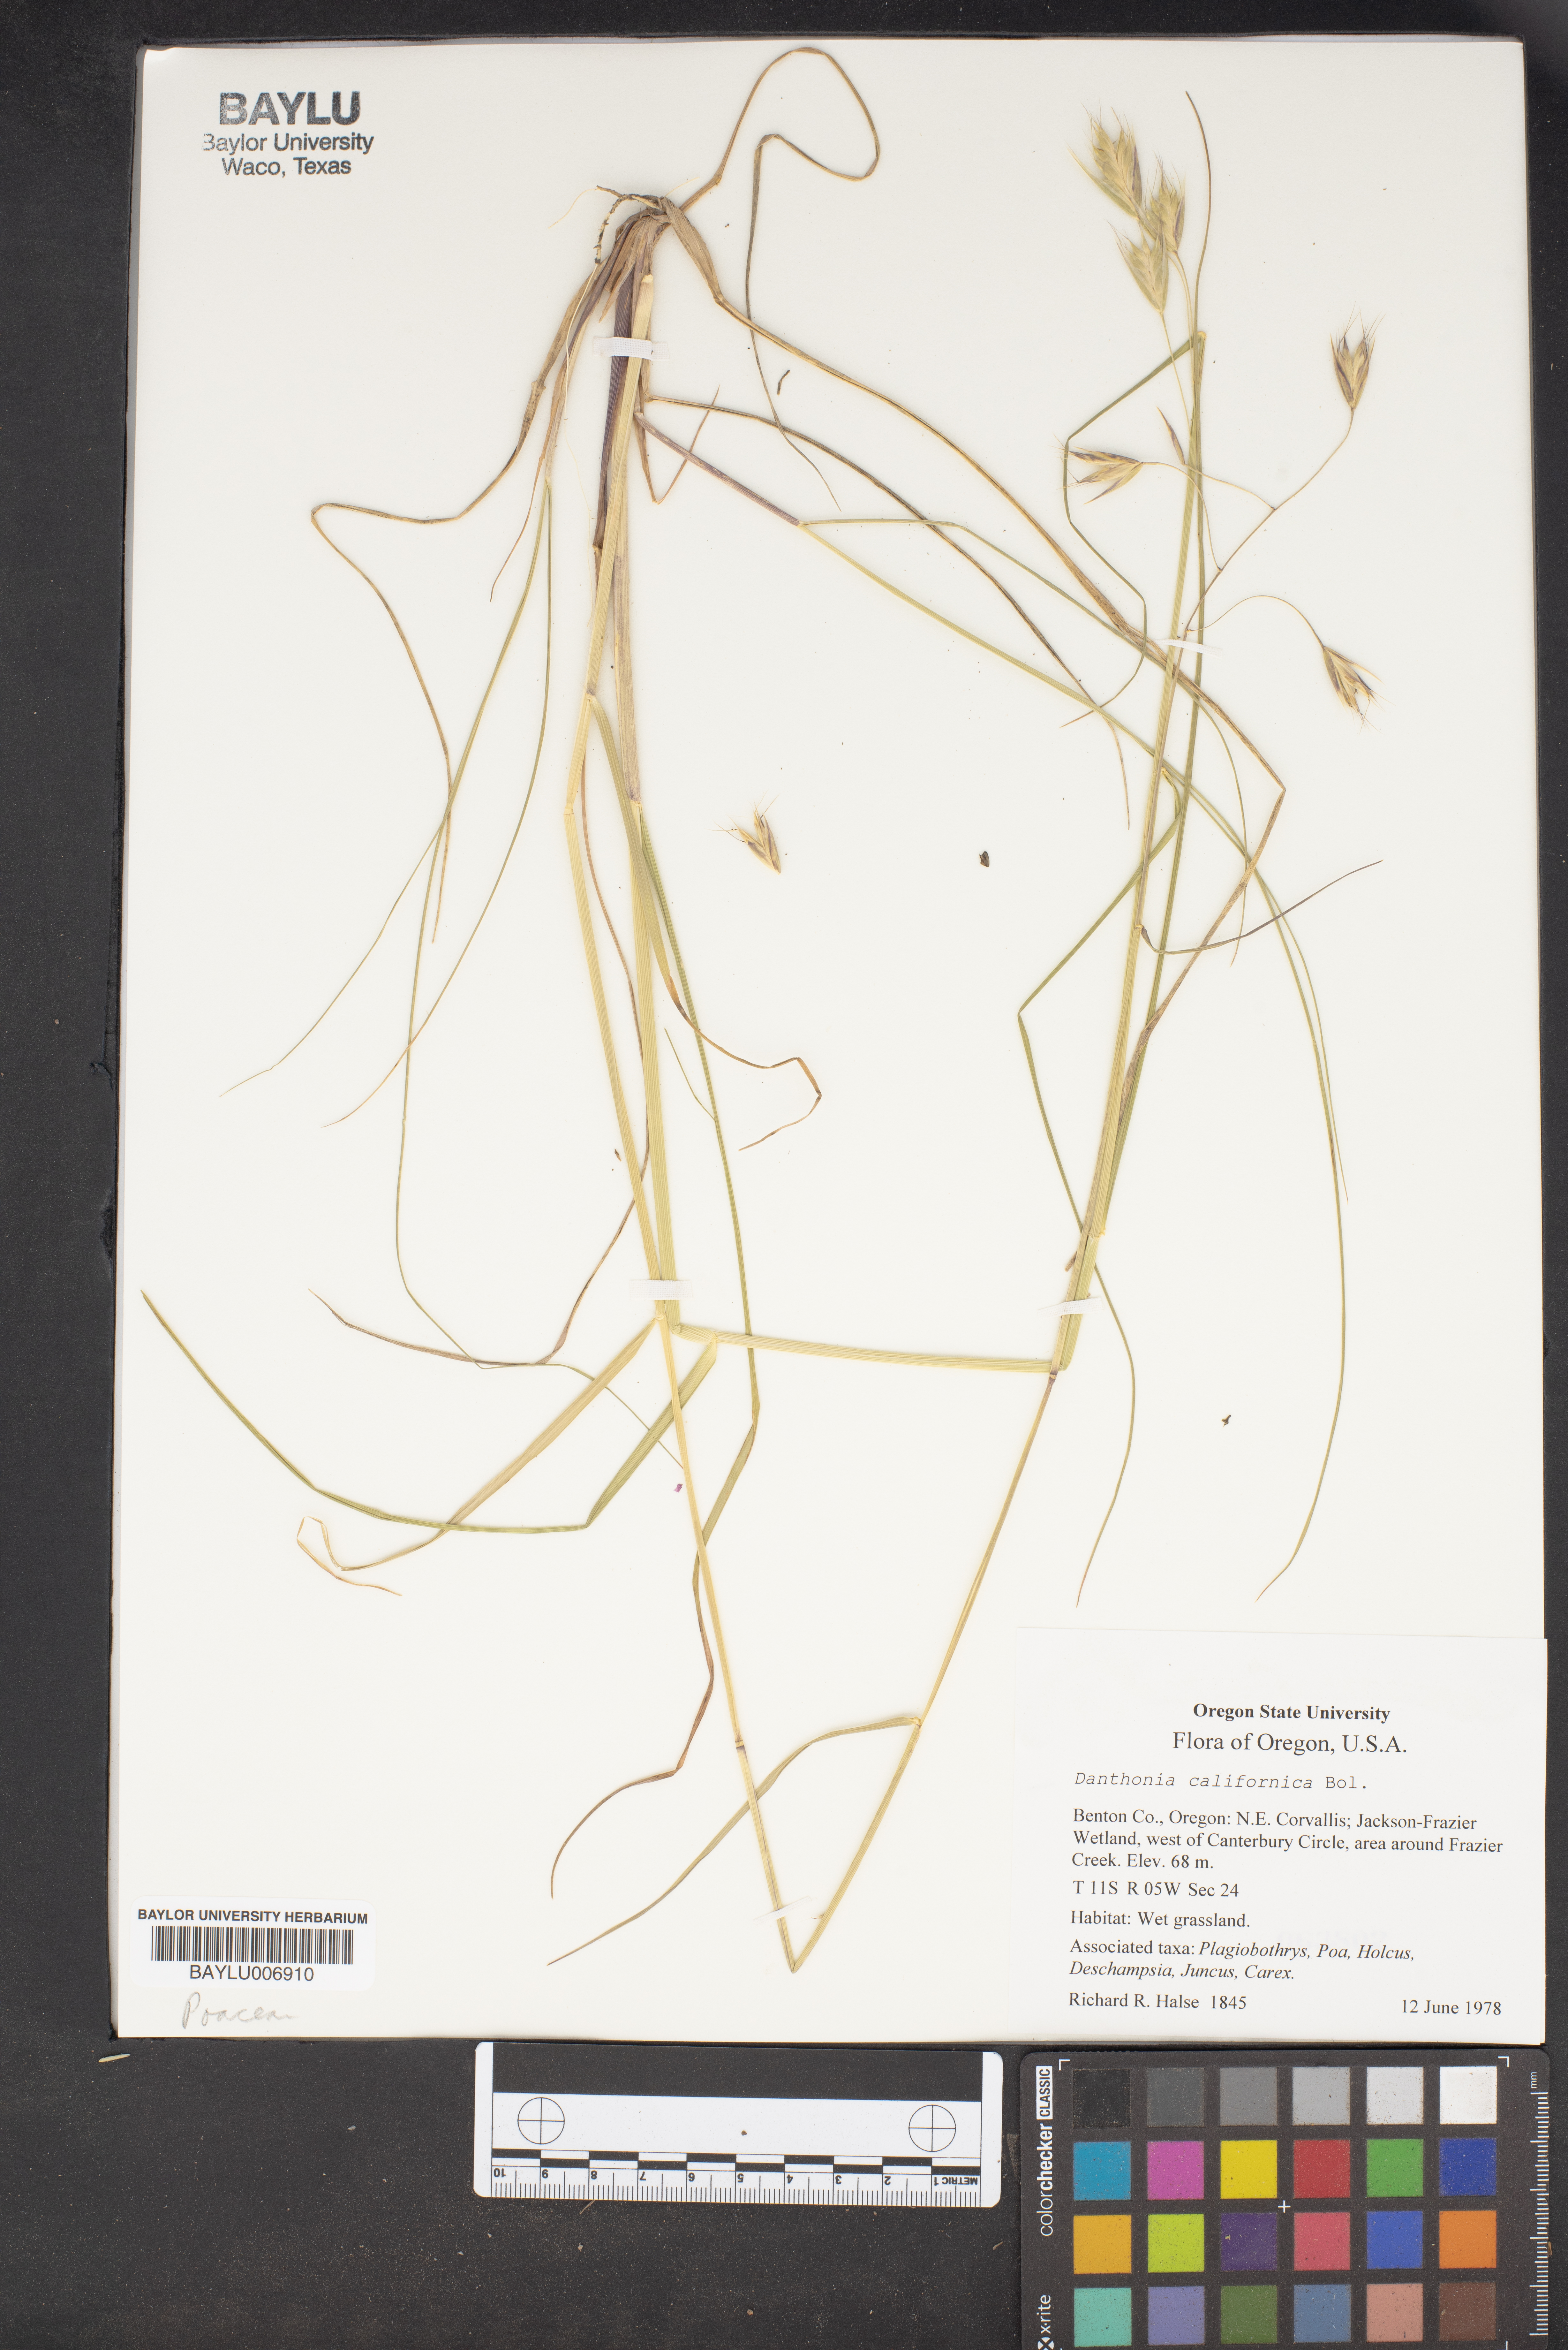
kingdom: Plantae
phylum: Tracheophyta
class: Liliopsida
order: Poales
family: Poaceae
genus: Danthonia
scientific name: Danthonia californica
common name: California oat grass
